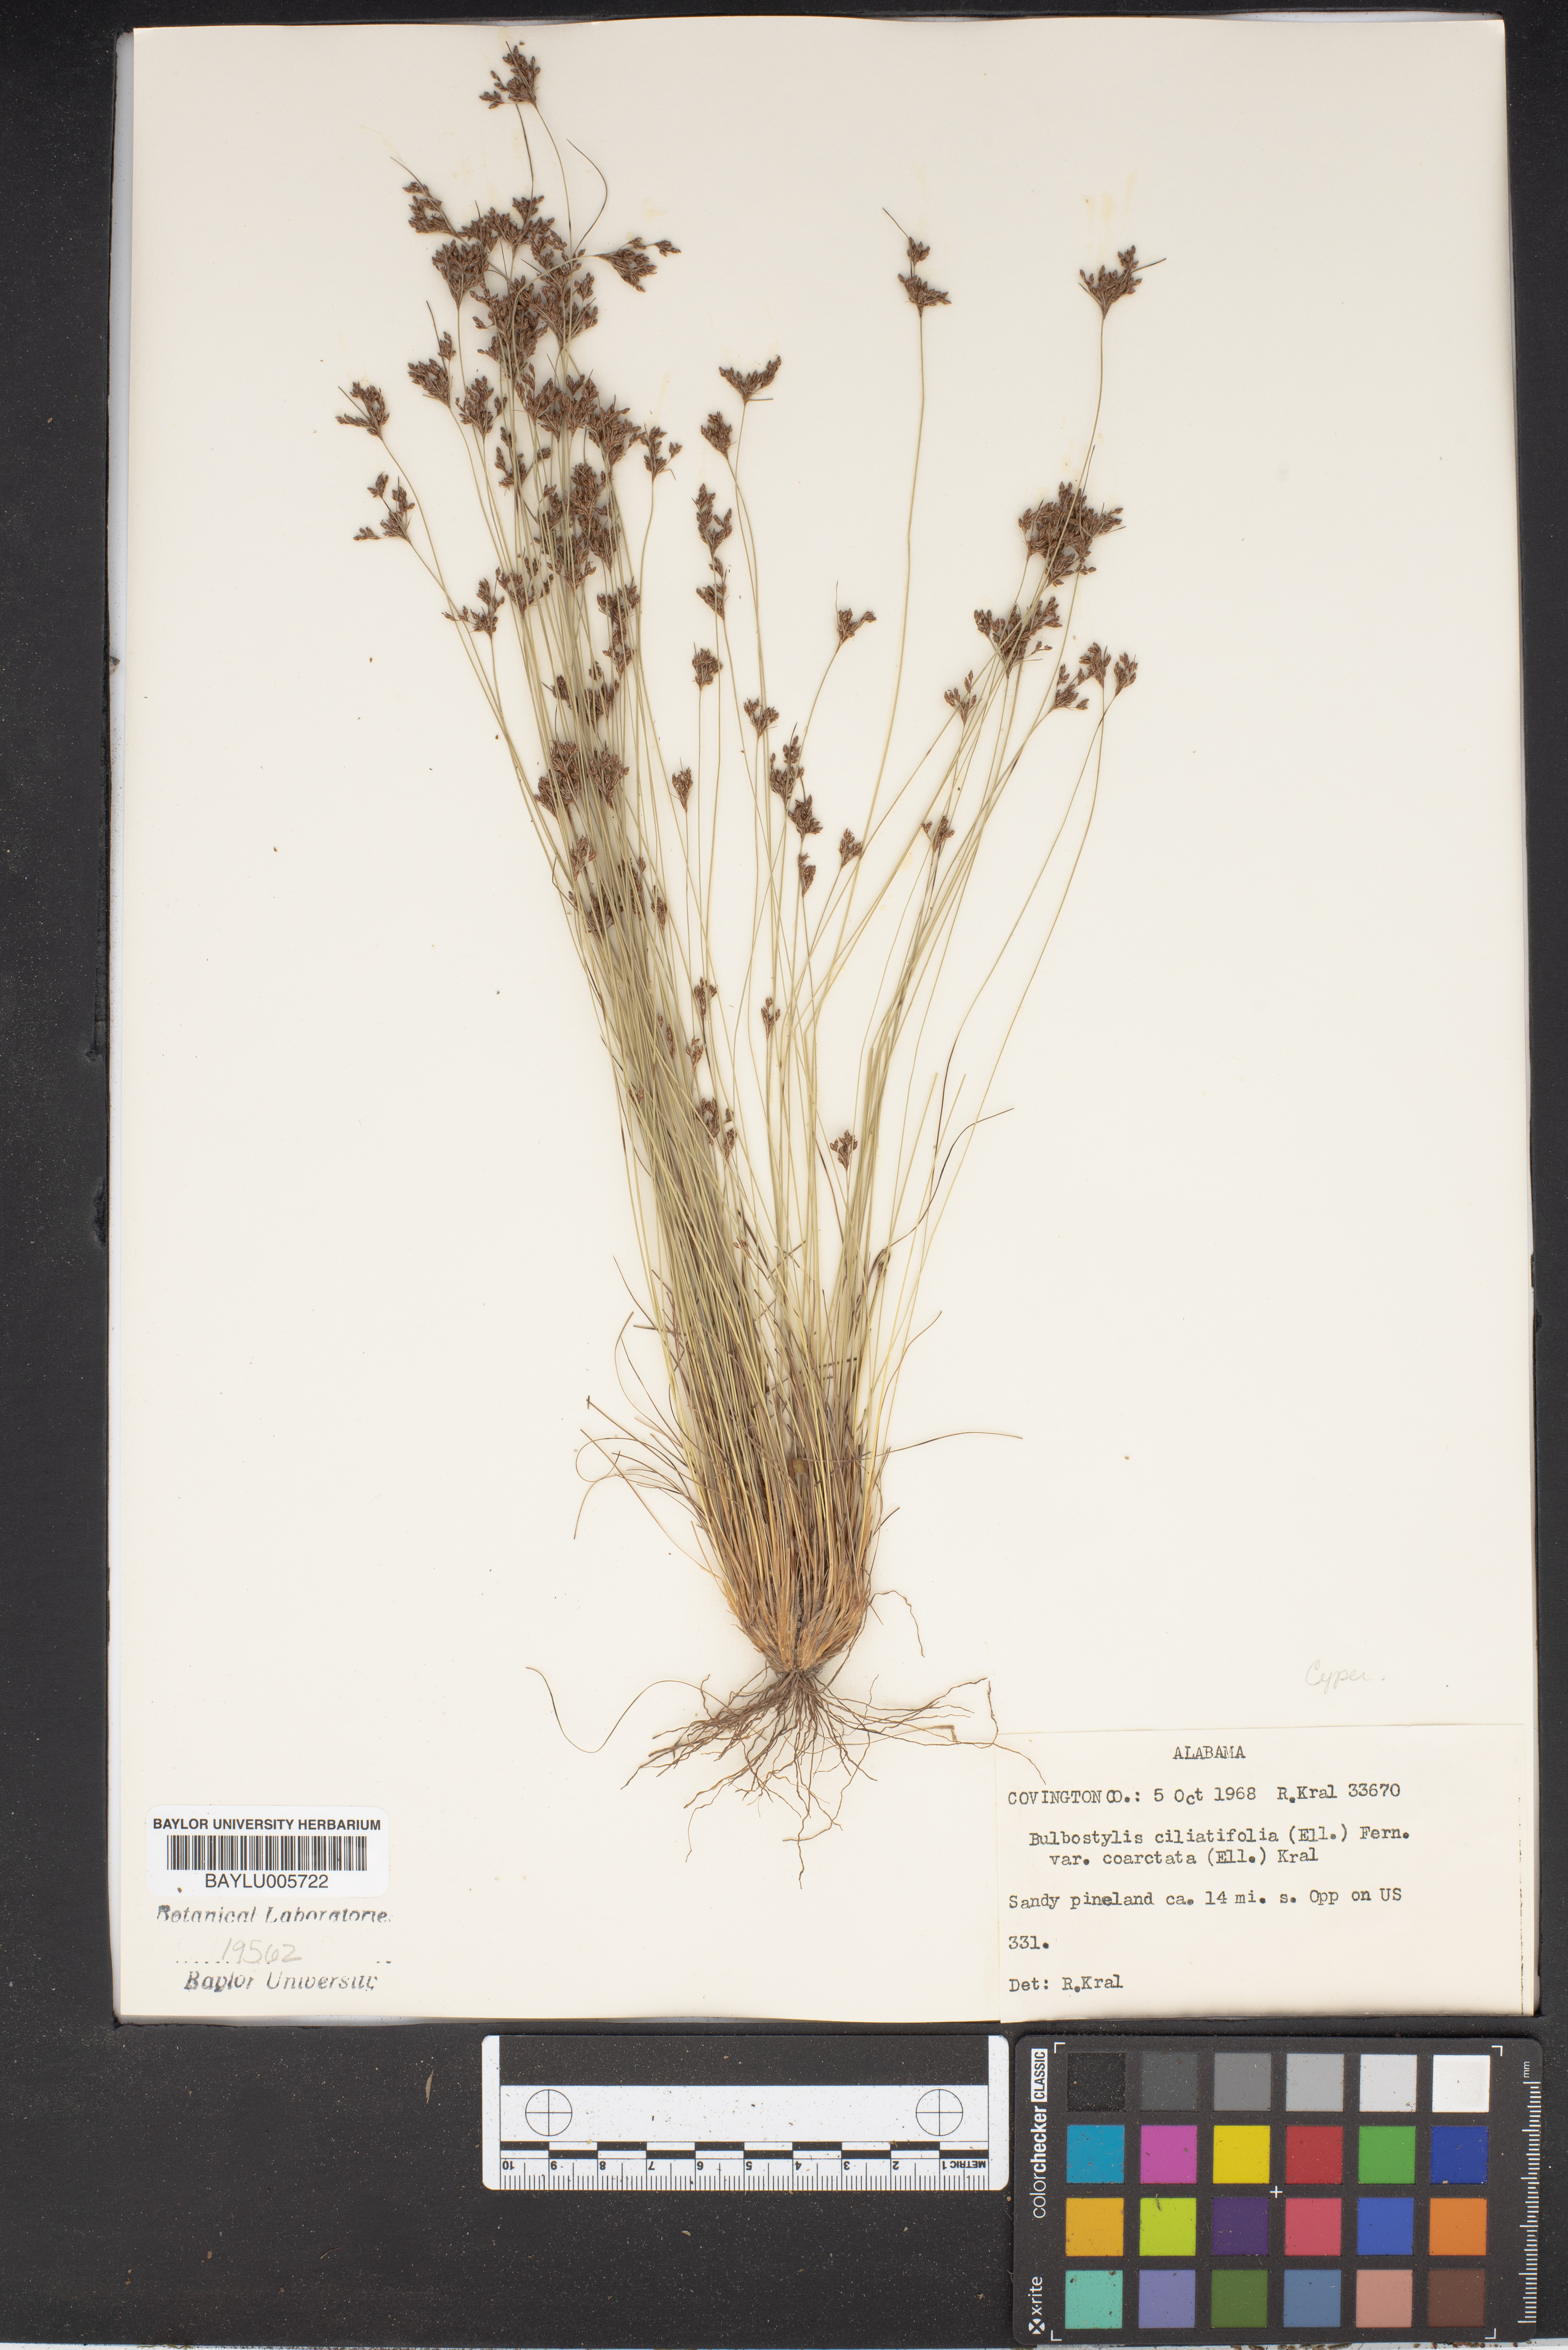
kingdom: Plantae
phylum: Tracheophyta
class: Liliopsida
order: Poales
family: Cyperaceae
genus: Bulbostylis
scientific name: Bulbostylis ciliatifolia
